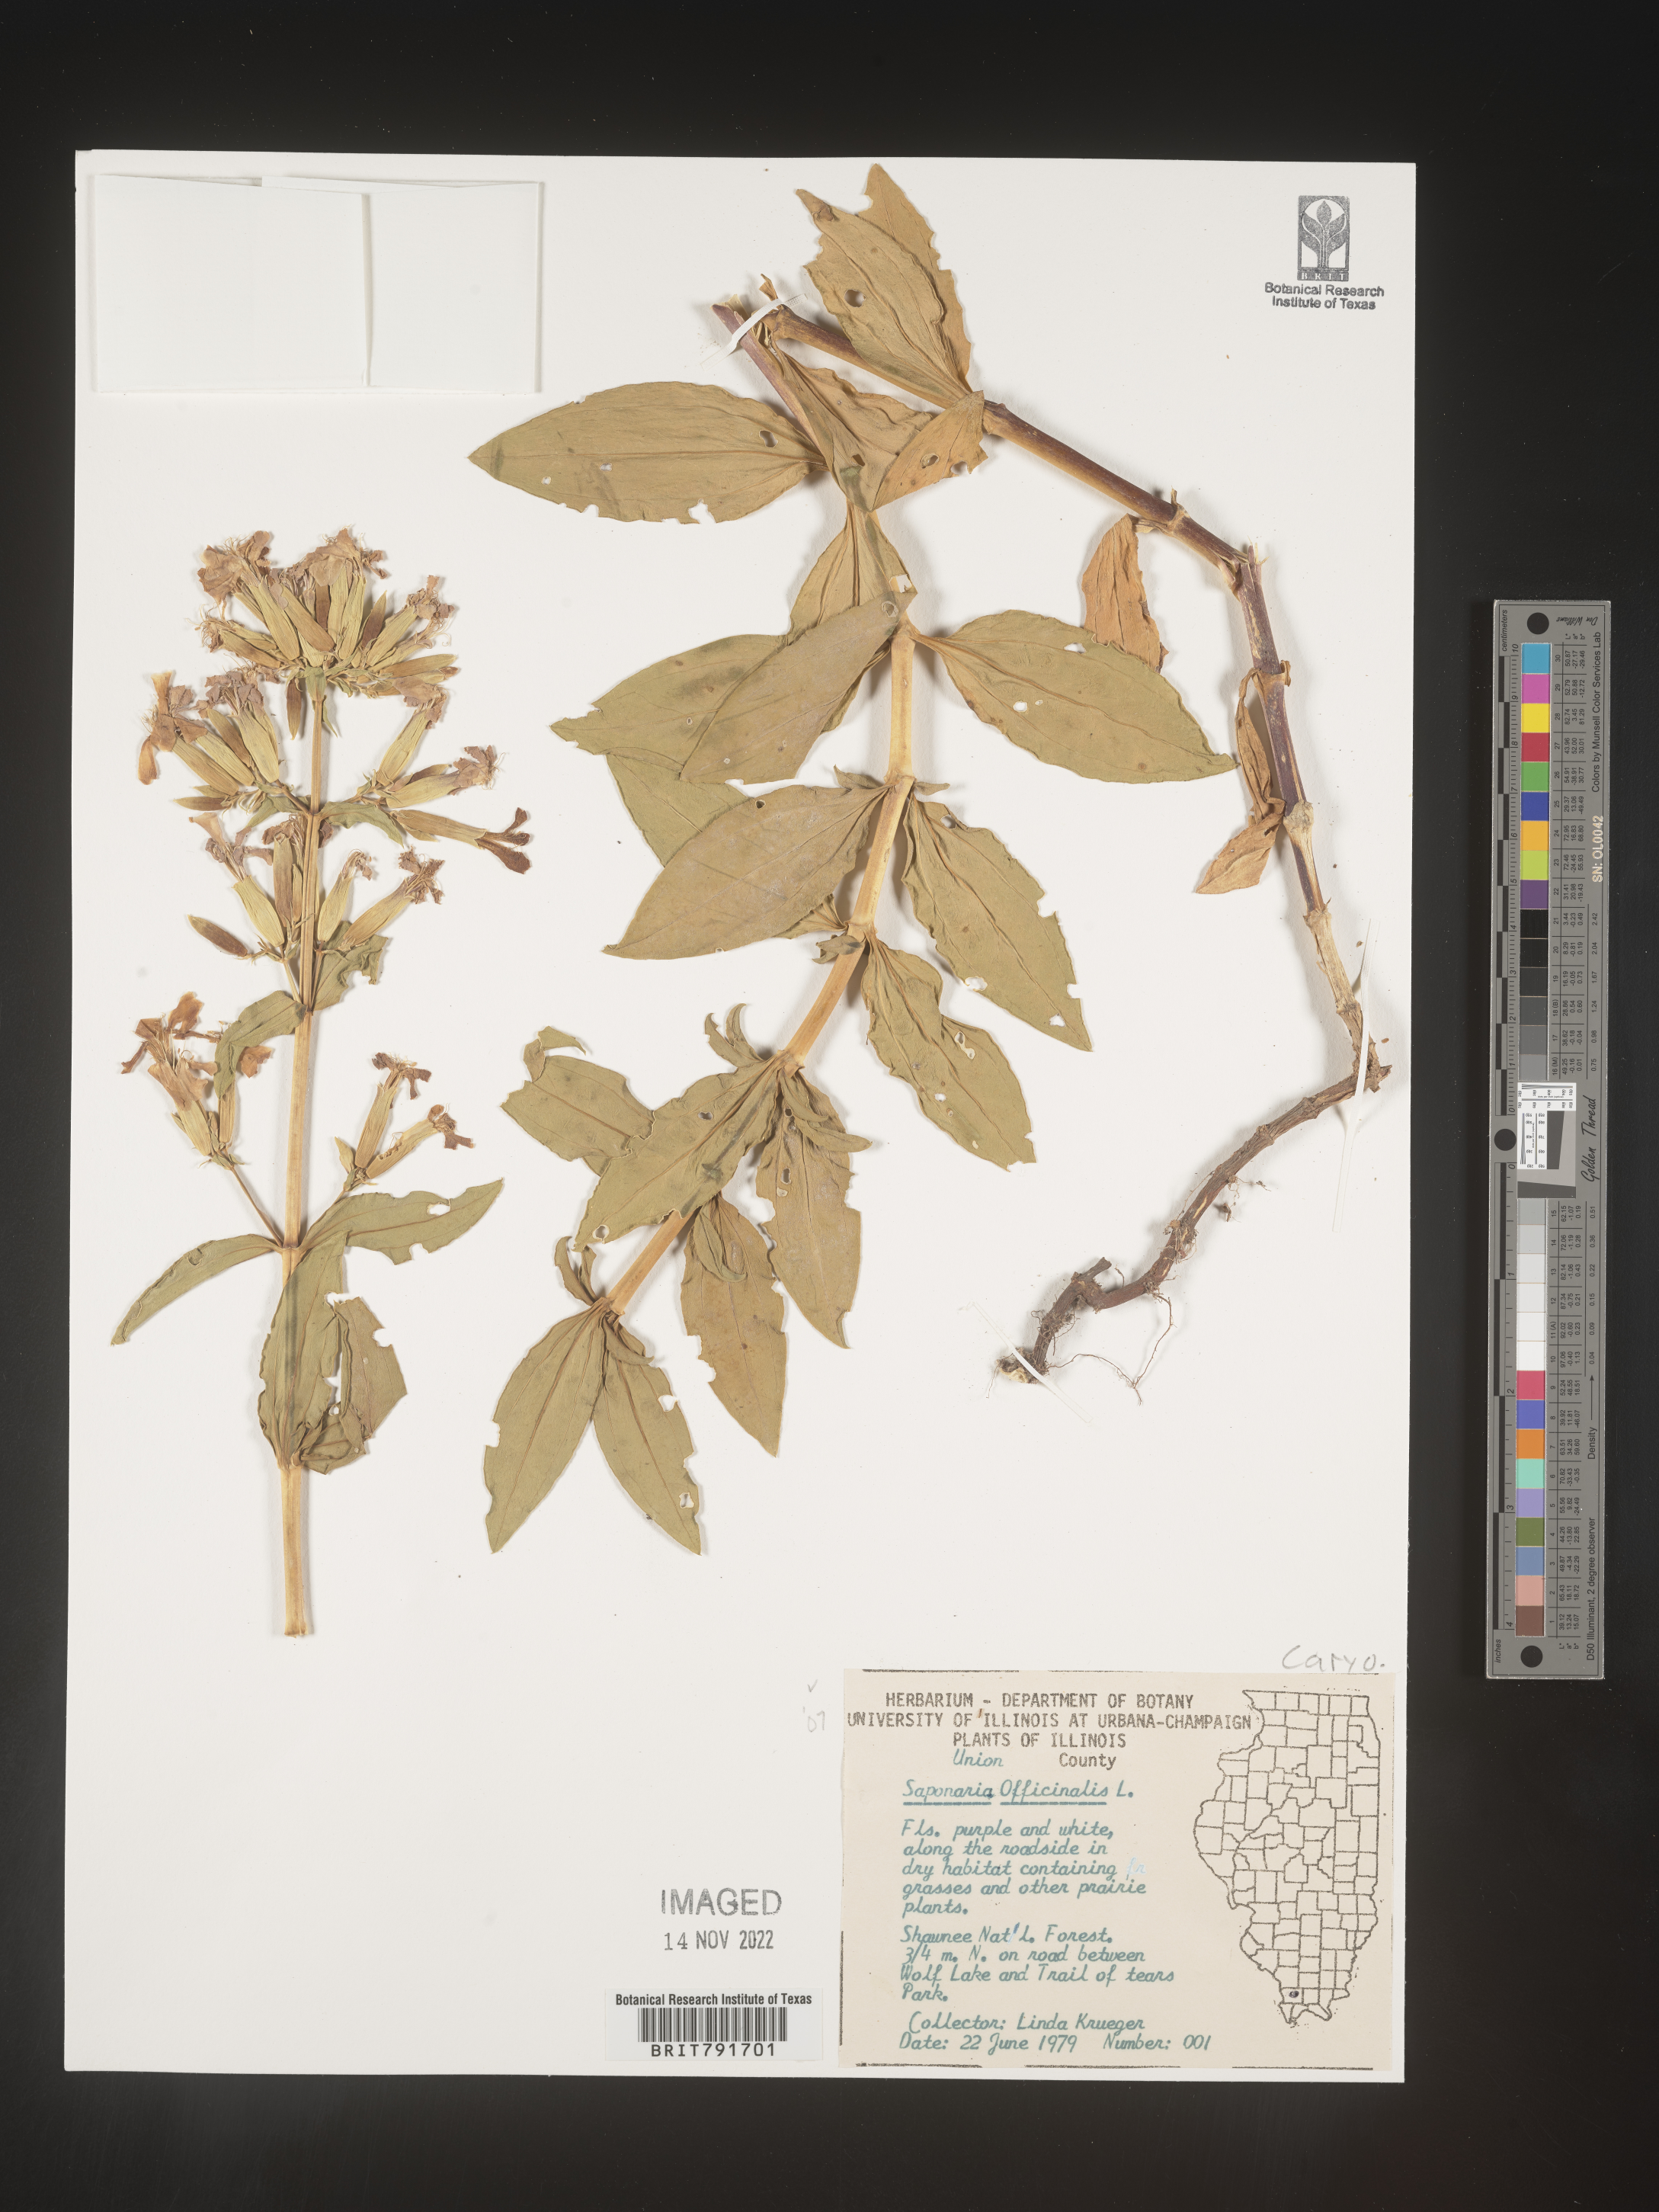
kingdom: Plantae
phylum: Tracheophyta
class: Magnoliopsida
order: Caryophyllales
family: Caryophyllaceae
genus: Saponaria
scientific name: Saponaria officinalis
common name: Soapwort
